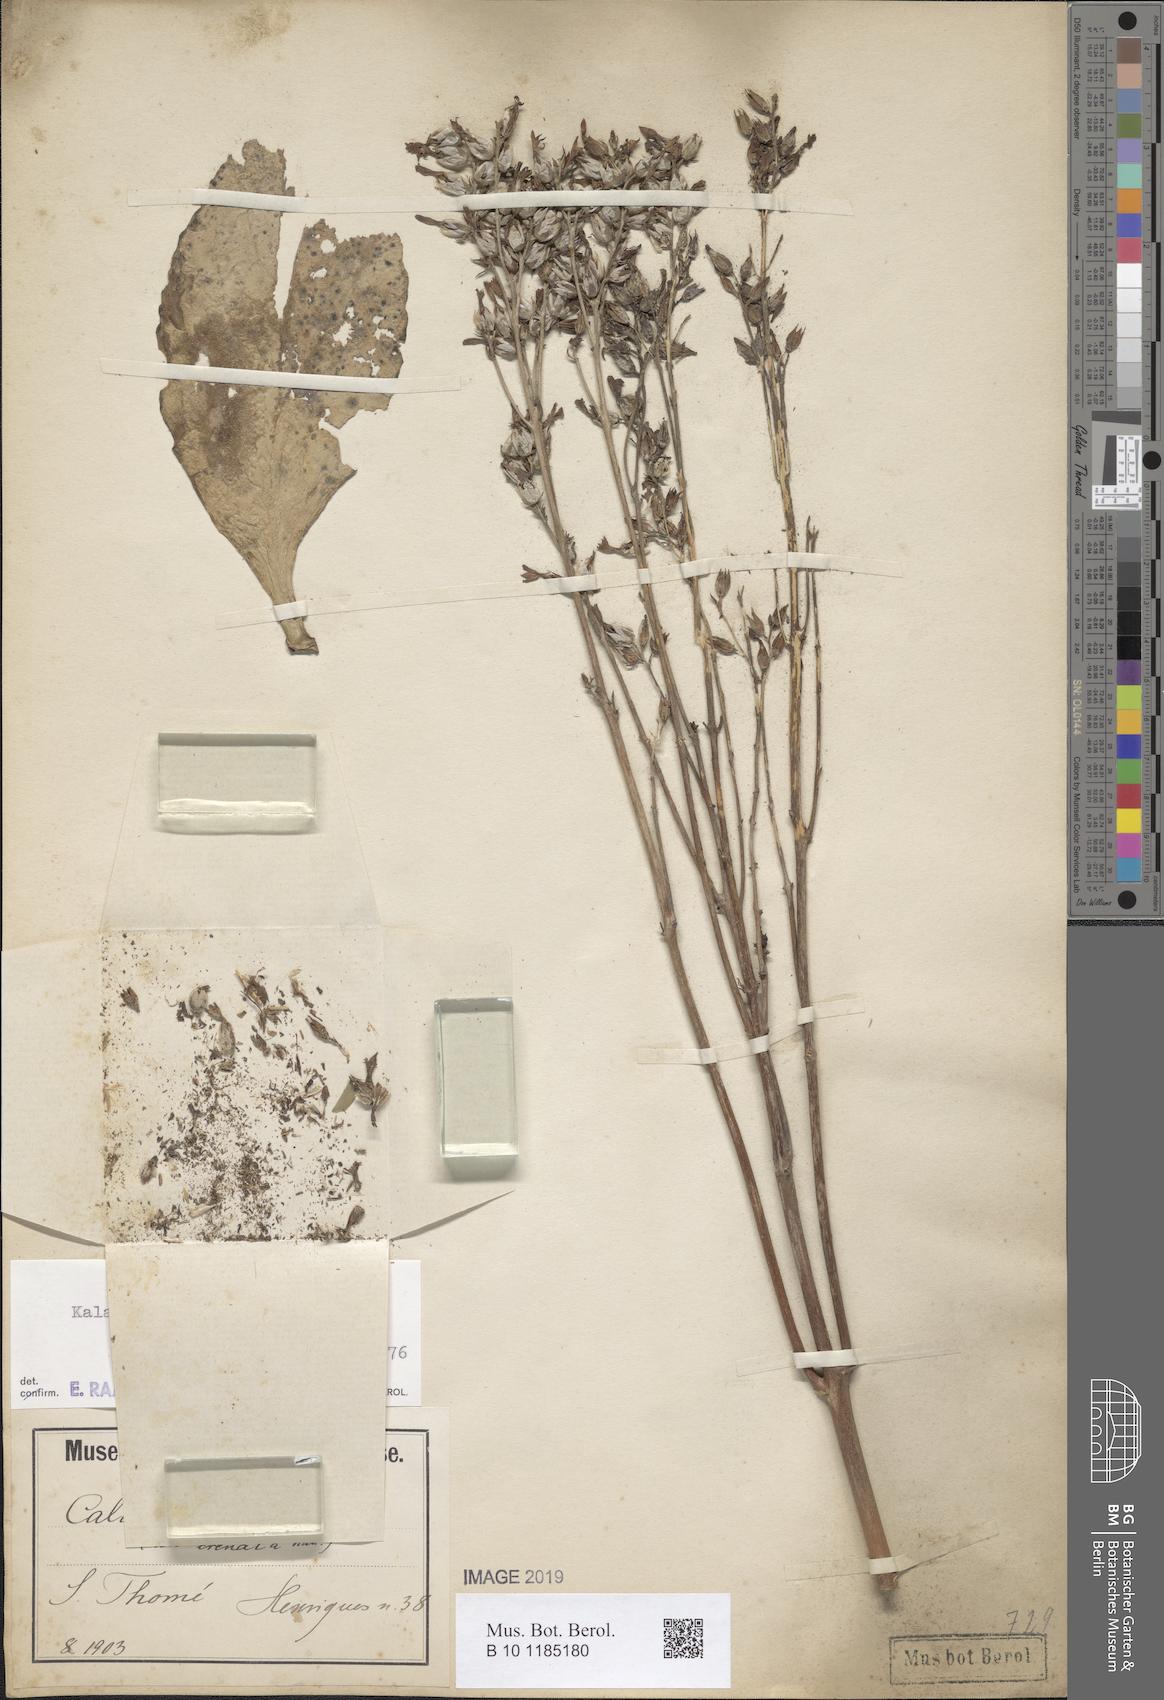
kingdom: Plantae
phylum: Tracheophyta
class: Magnoliopsida
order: Saxifragales
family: Crassulaceae
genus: Kalanchoe
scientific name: Kalanchoe crenata
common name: Neverdie
